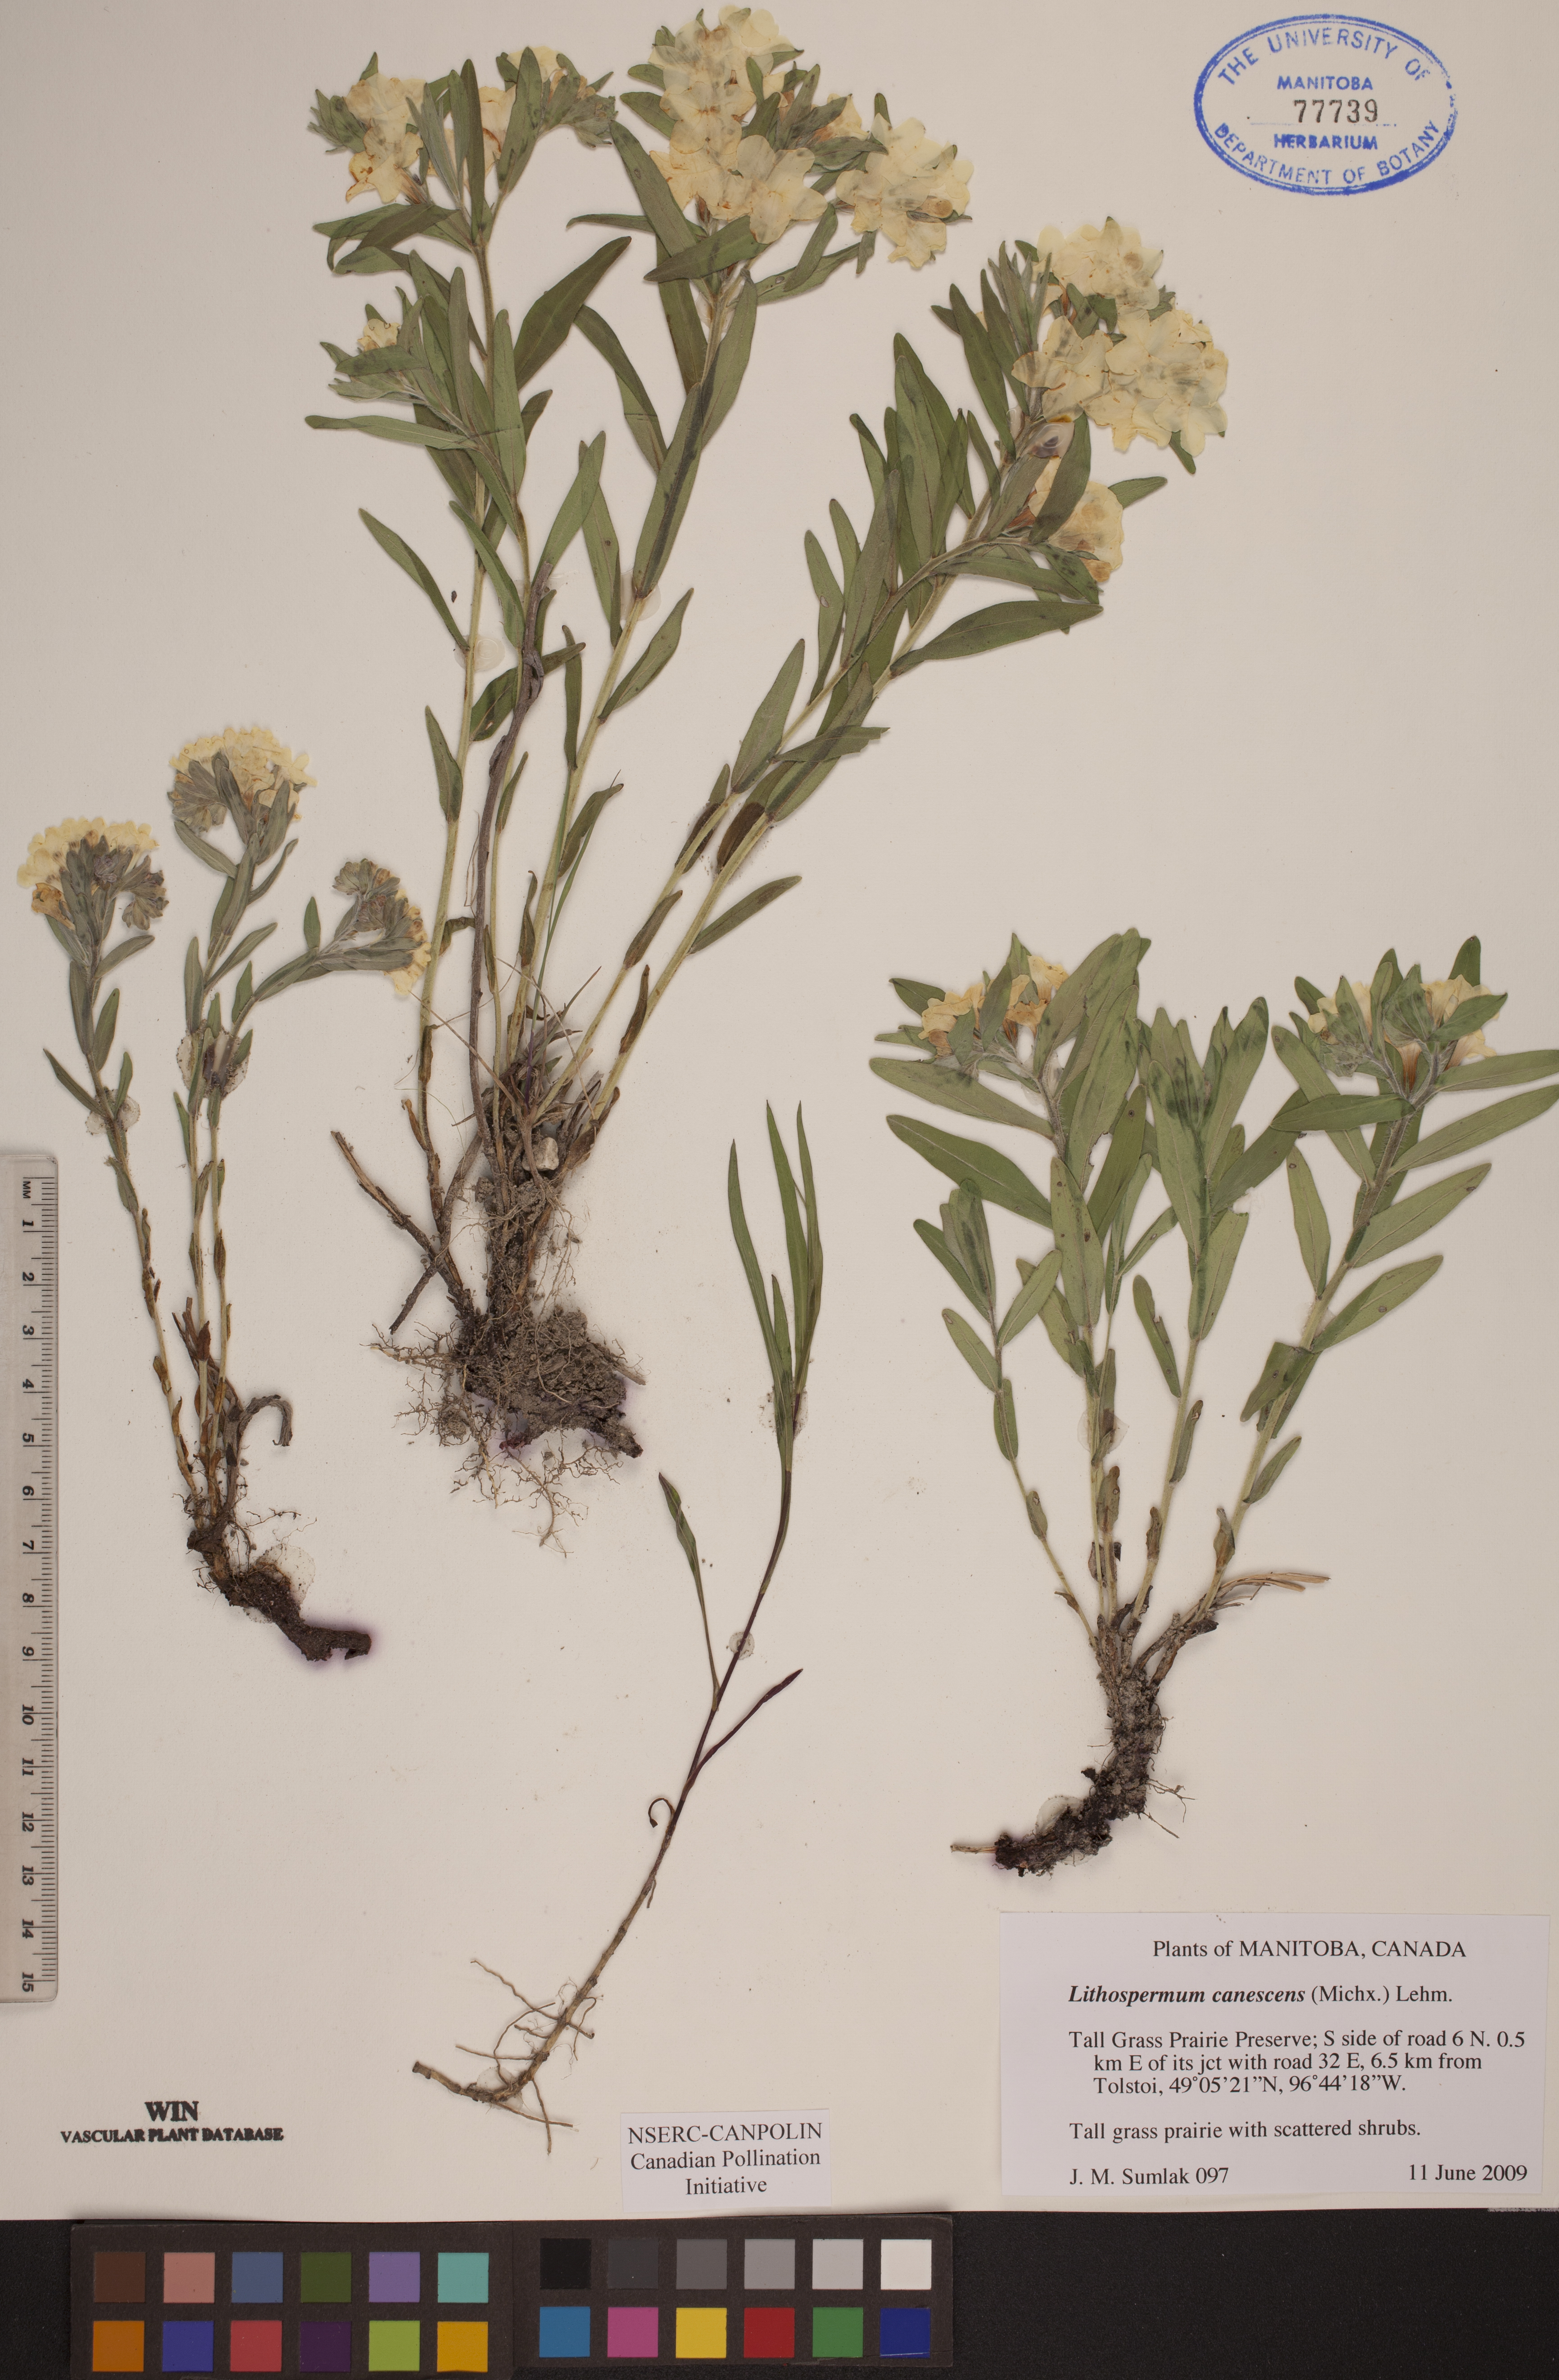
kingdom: Plantae
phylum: Tracheophyta
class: Magnoliopsida
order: Boraginales
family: Boraginaceae
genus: Lithospermum
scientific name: Lithospermum canescens
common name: Hoary puccoon
